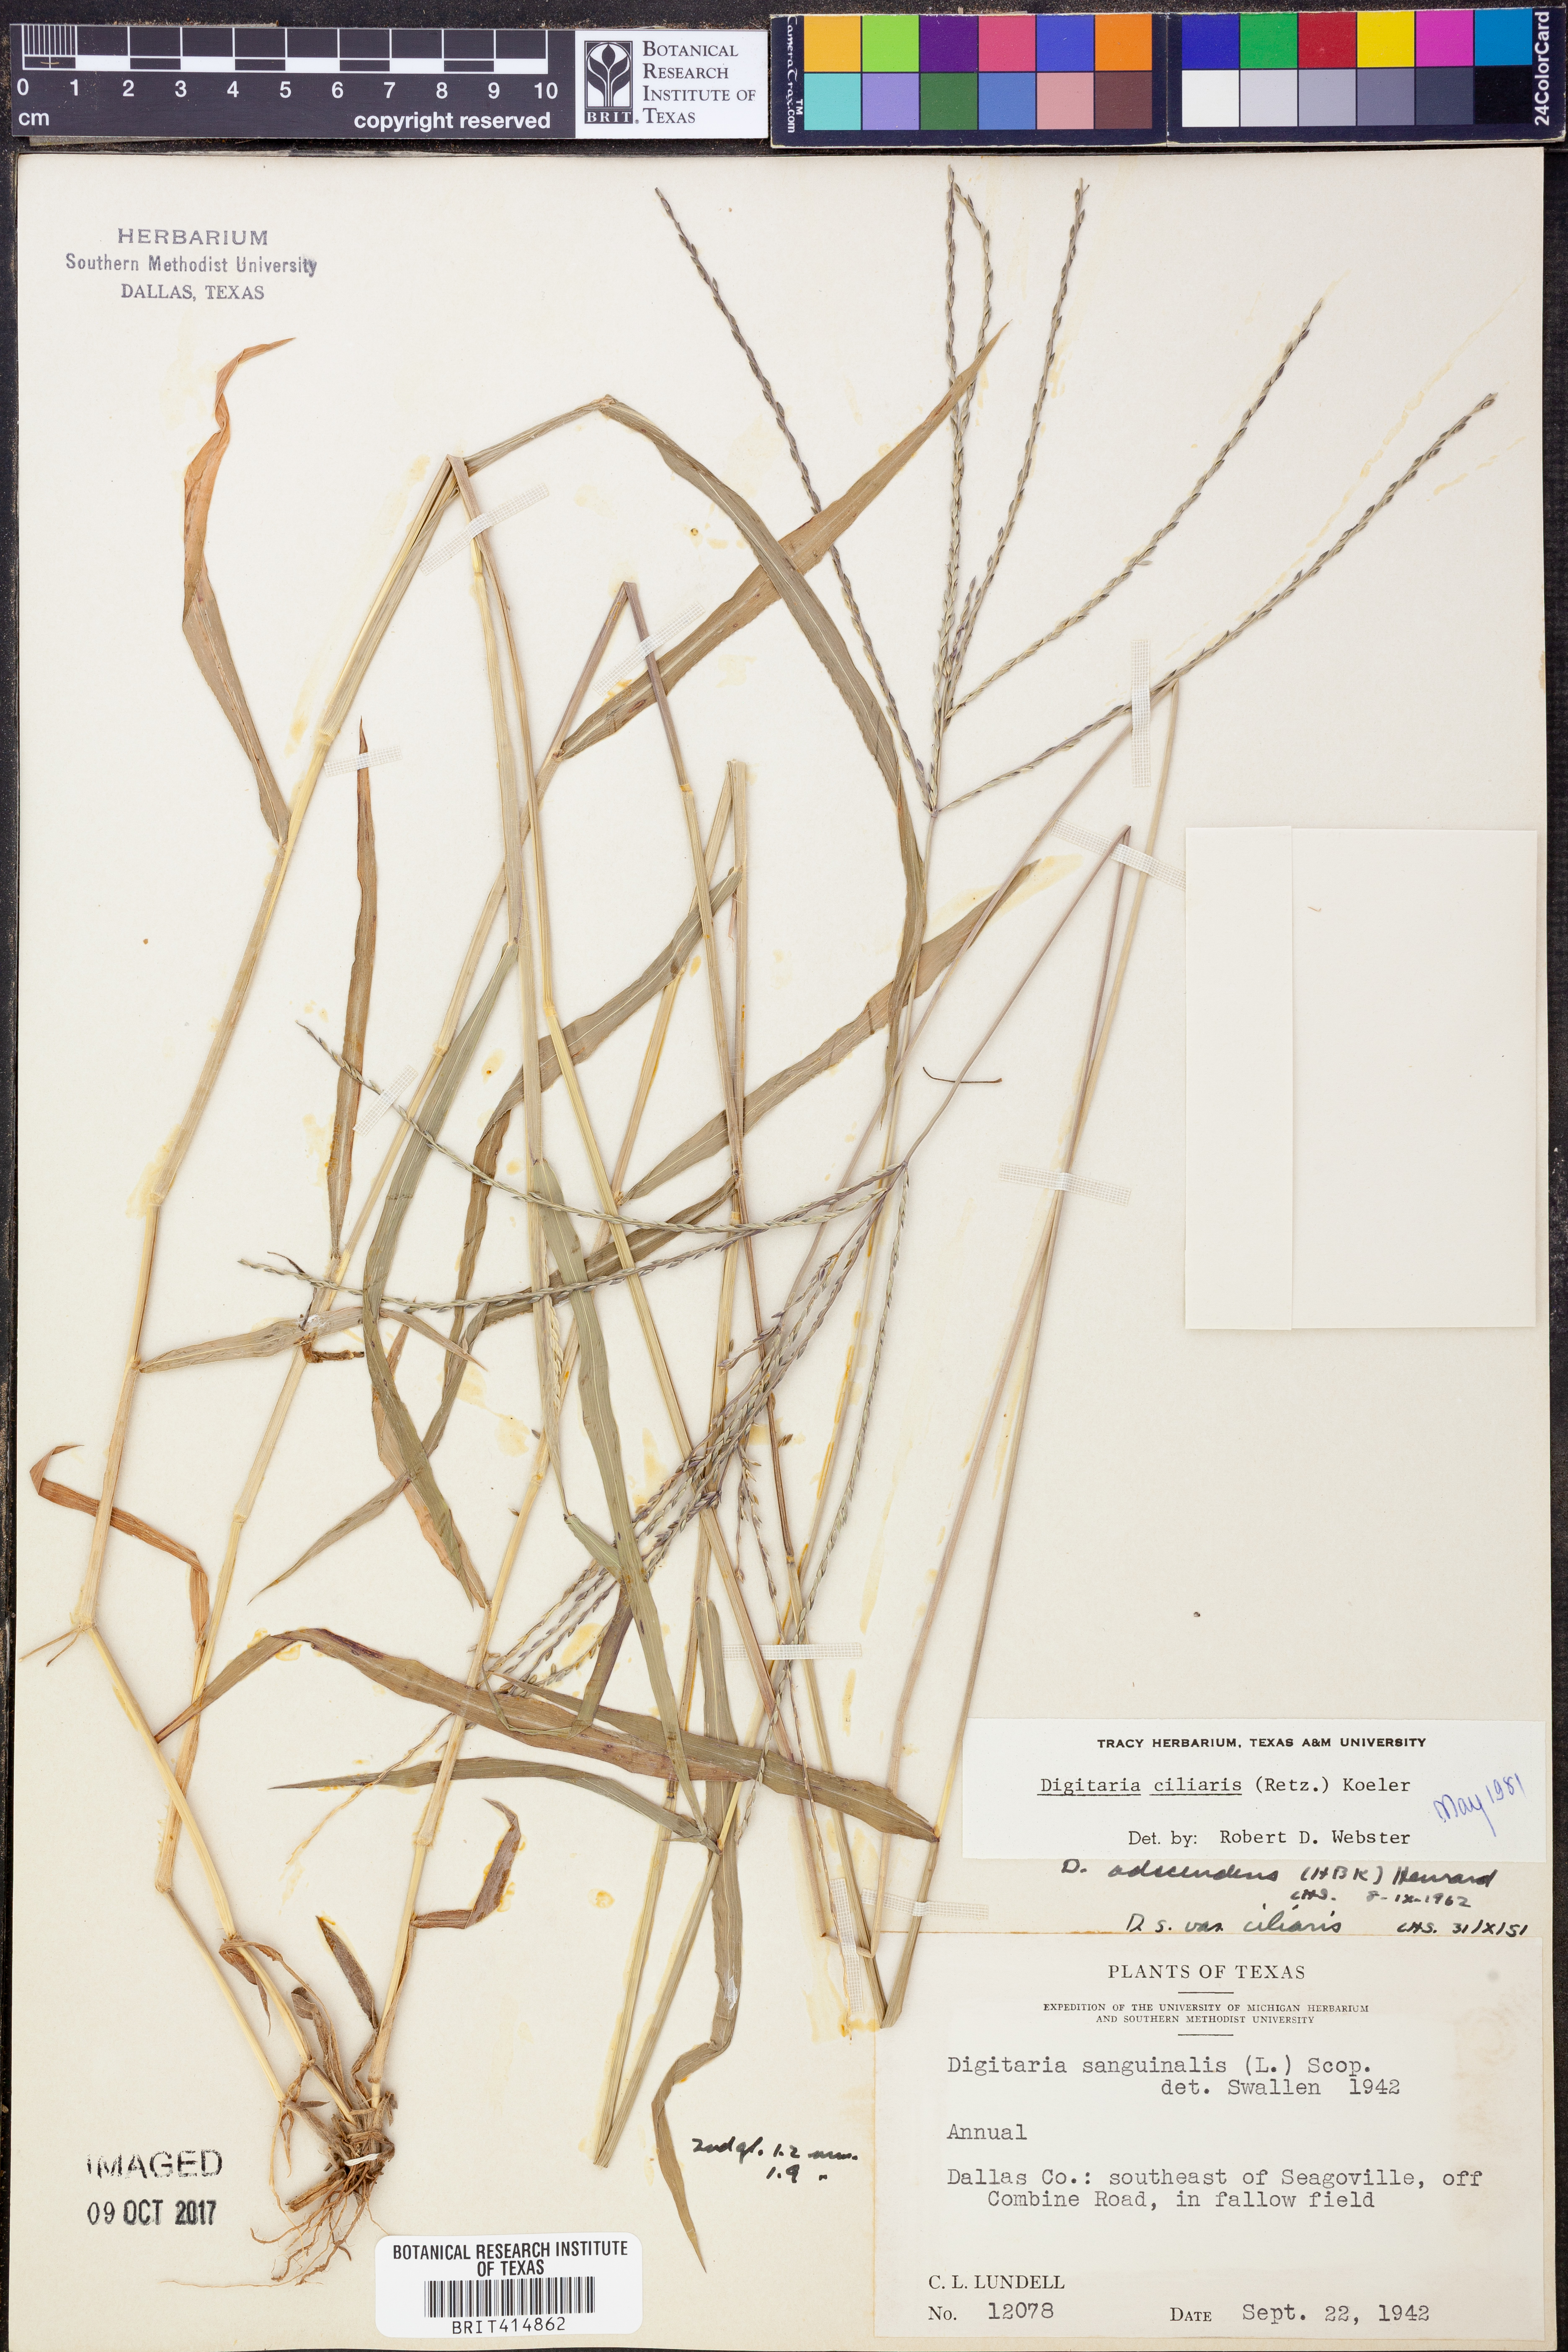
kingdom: Plantae
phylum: Tracheophyta
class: Liliopsida
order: Poales
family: Poaceae
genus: Digitaria
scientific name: Digitaria ciliaris
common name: Tropical finger-grass
